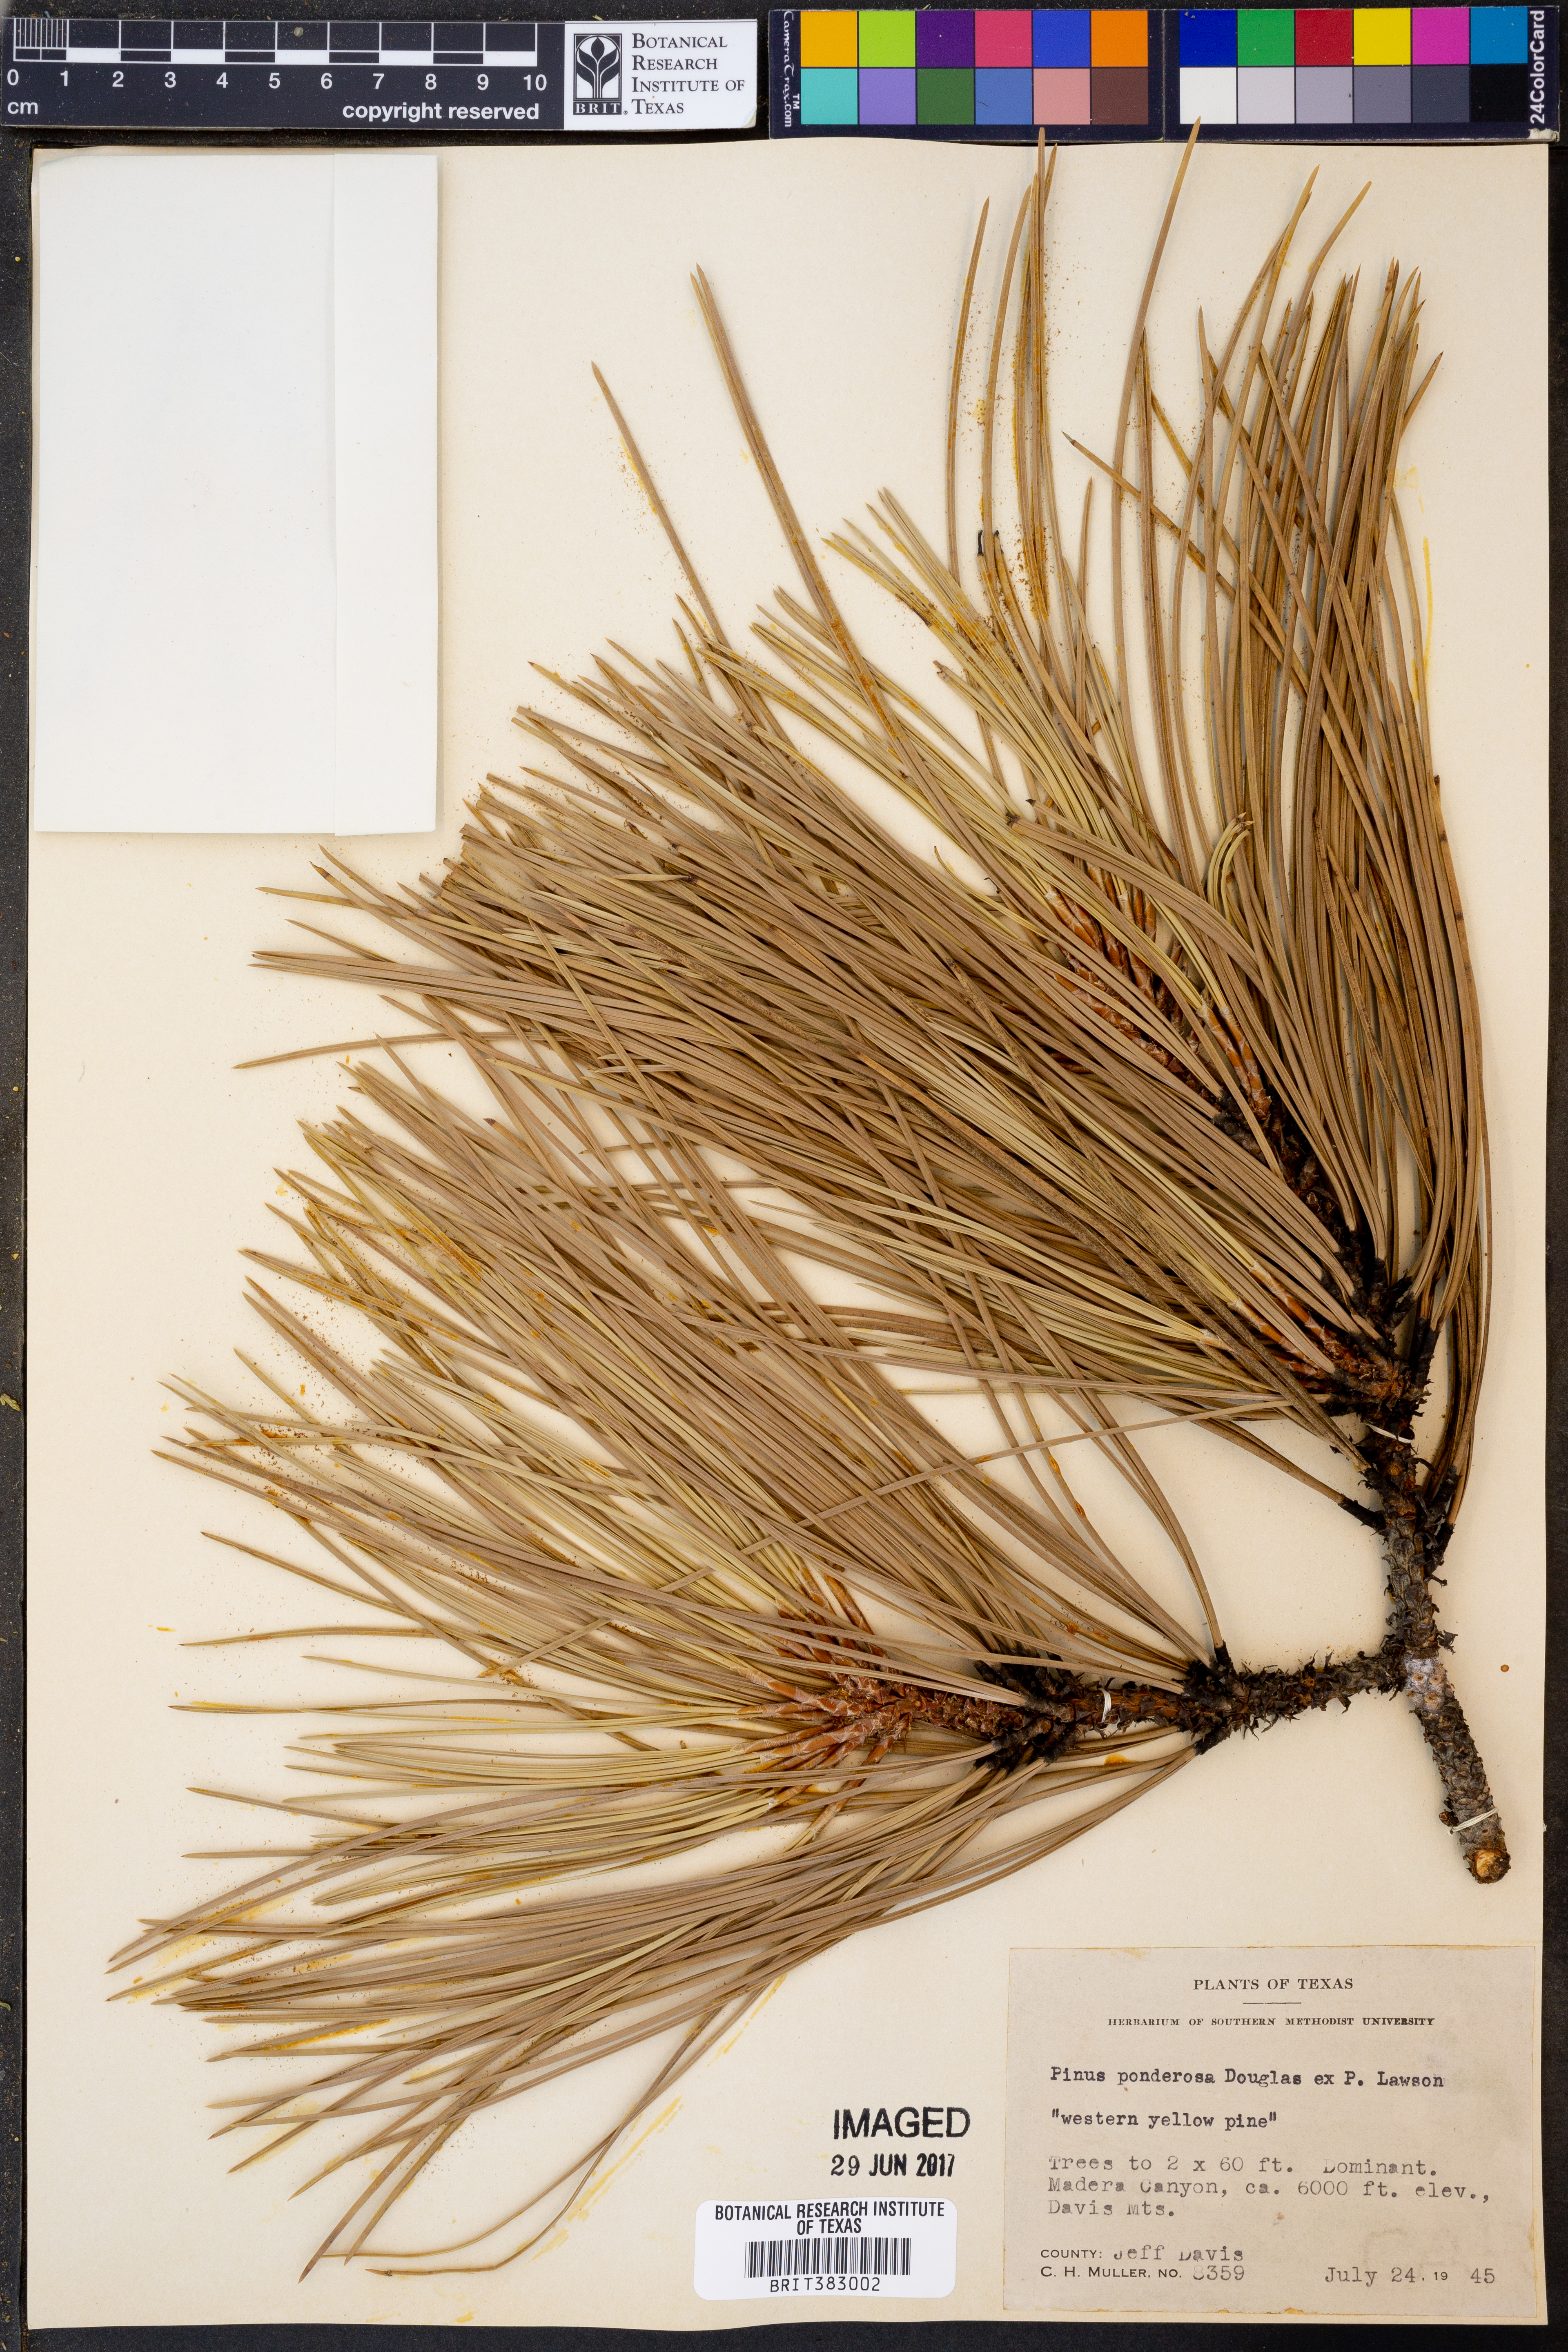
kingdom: Plantae
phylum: Tracheophyta
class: Pinopsida
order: Pinales
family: Pinaceae
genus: Pinus
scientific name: Pinus ponderosa
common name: Western yellow-pine
